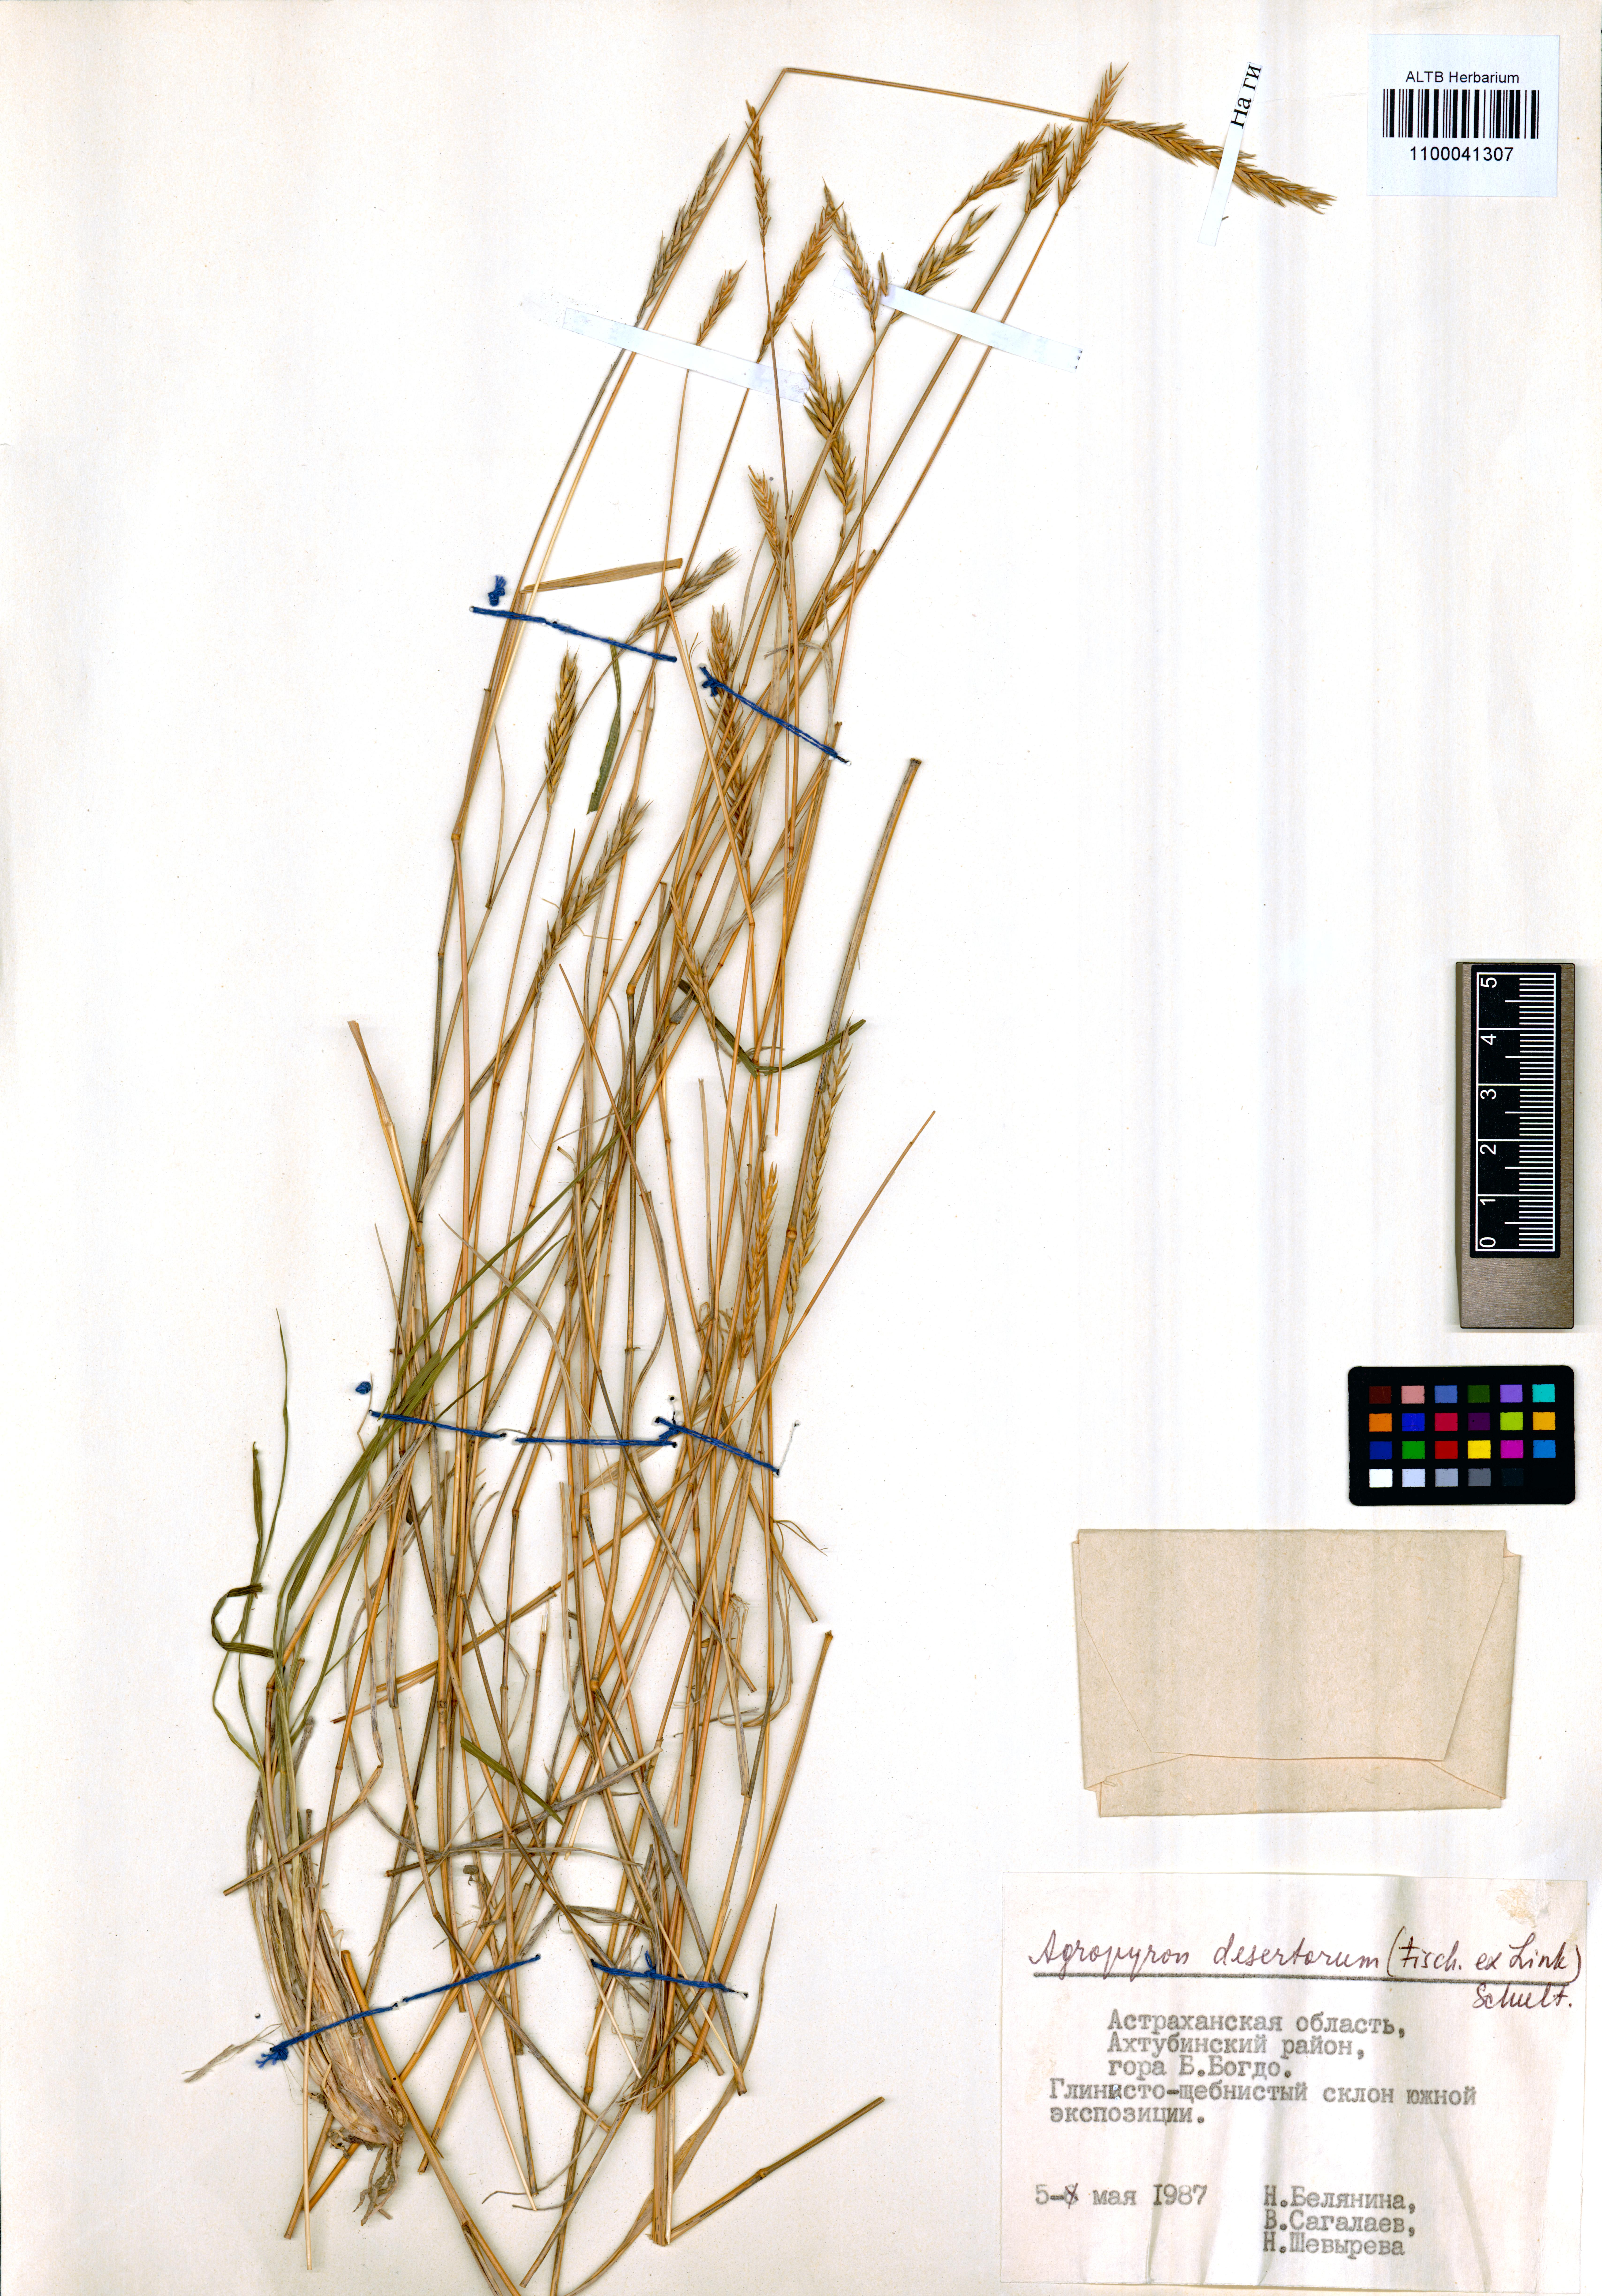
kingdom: Plantae
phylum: Tracheophyta
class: Liliopsida
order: Poales
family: Poaceae
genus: Agropyron
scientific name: Agropyron desertorum
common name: Desert wheatgrass
